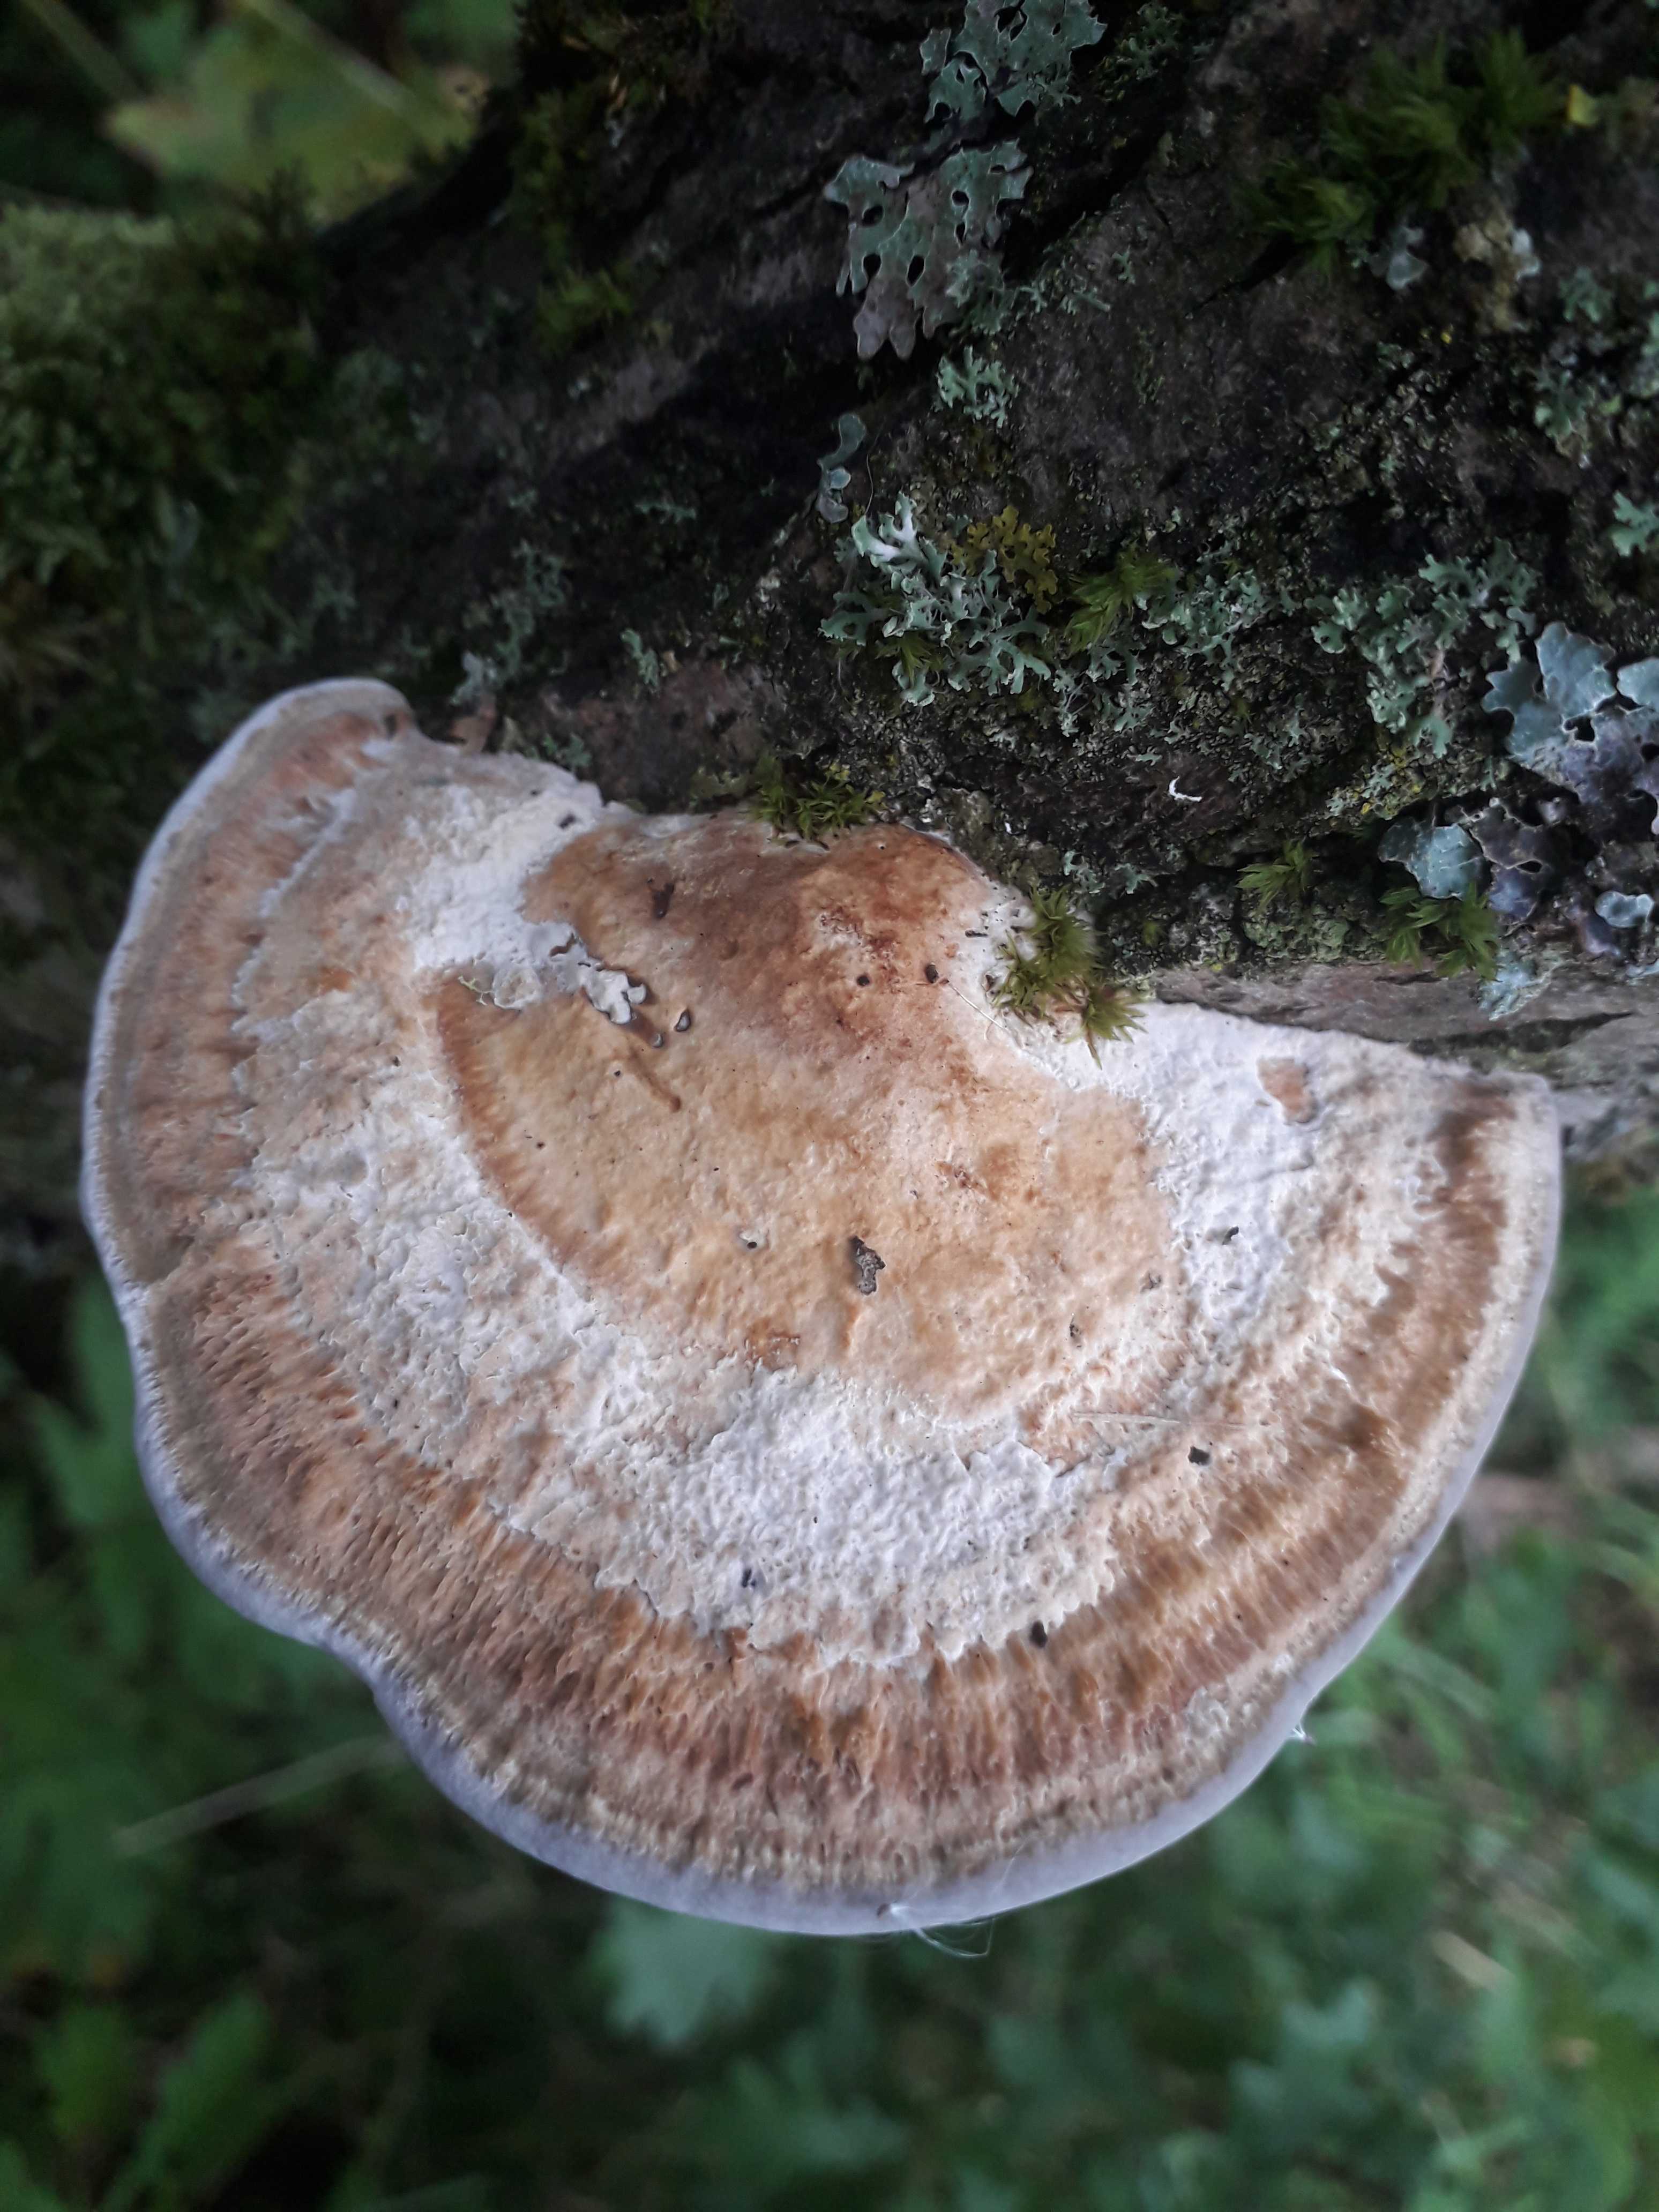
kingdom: Fungi
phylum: Basidiomycota
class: Agaricomycetes
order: Polyporales
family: Polyporaceae
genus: Daedaleopsis
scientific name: Daedaleopsis confragosa
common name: rødmende læderporesvamp
